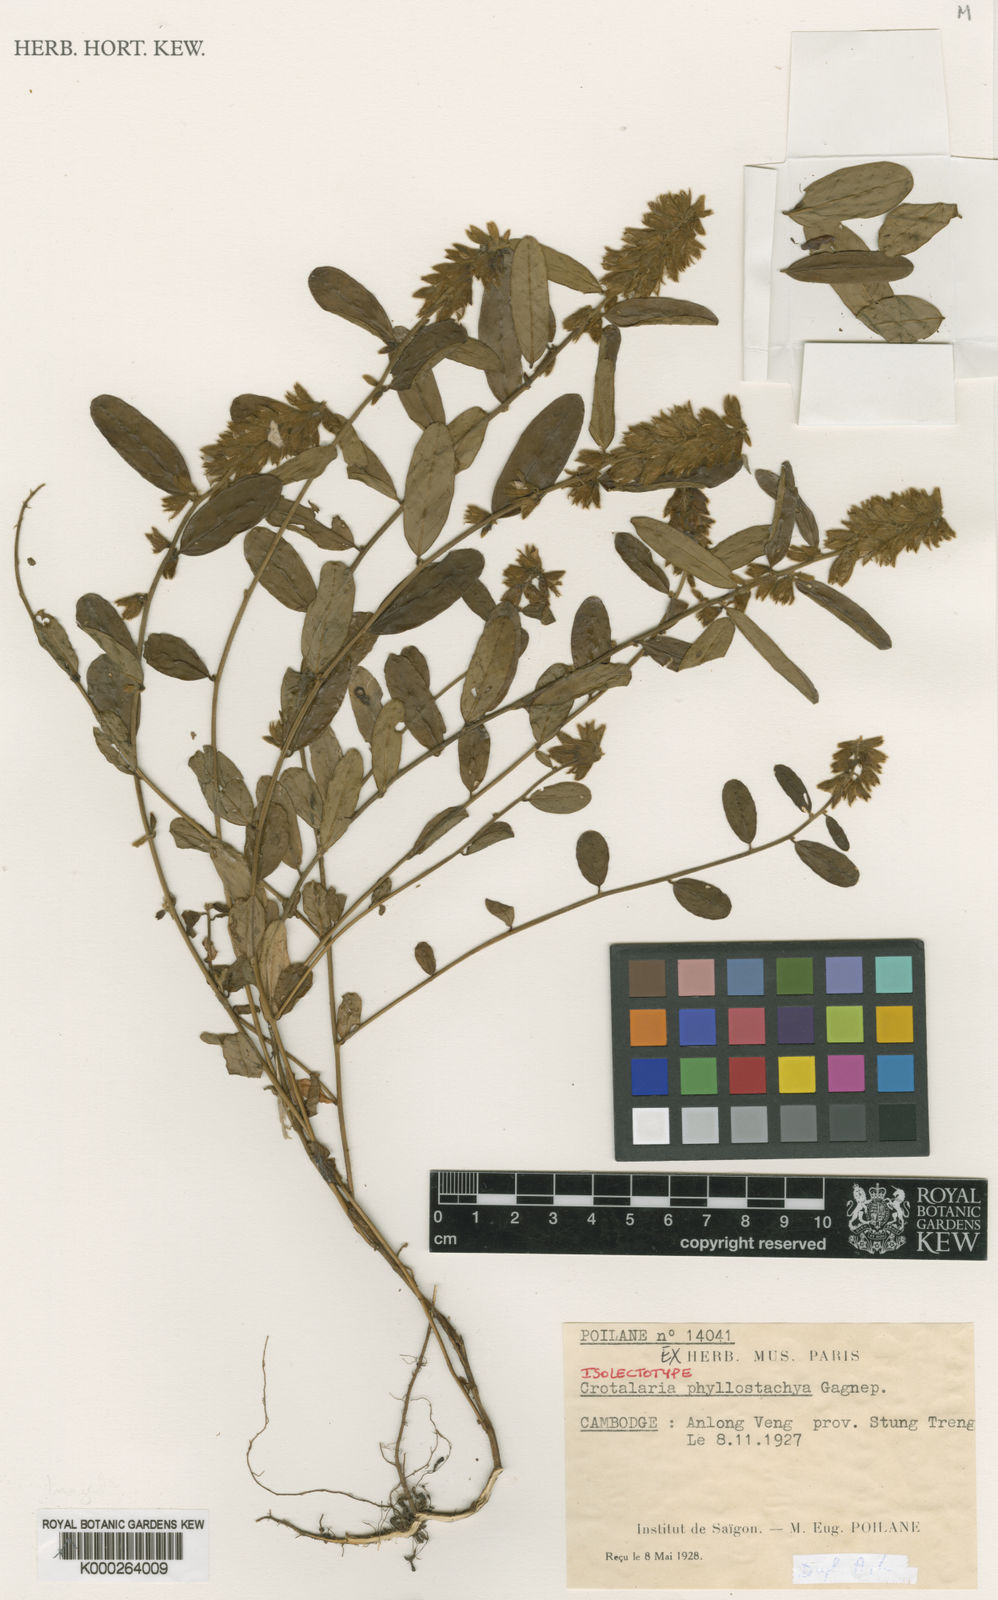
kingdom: Plantae
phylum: Tracheophyta
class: Magnoliopsida
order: Fabales
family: Fabaceae
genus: Crotalaria
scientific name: Crotalaria phyllostachya
